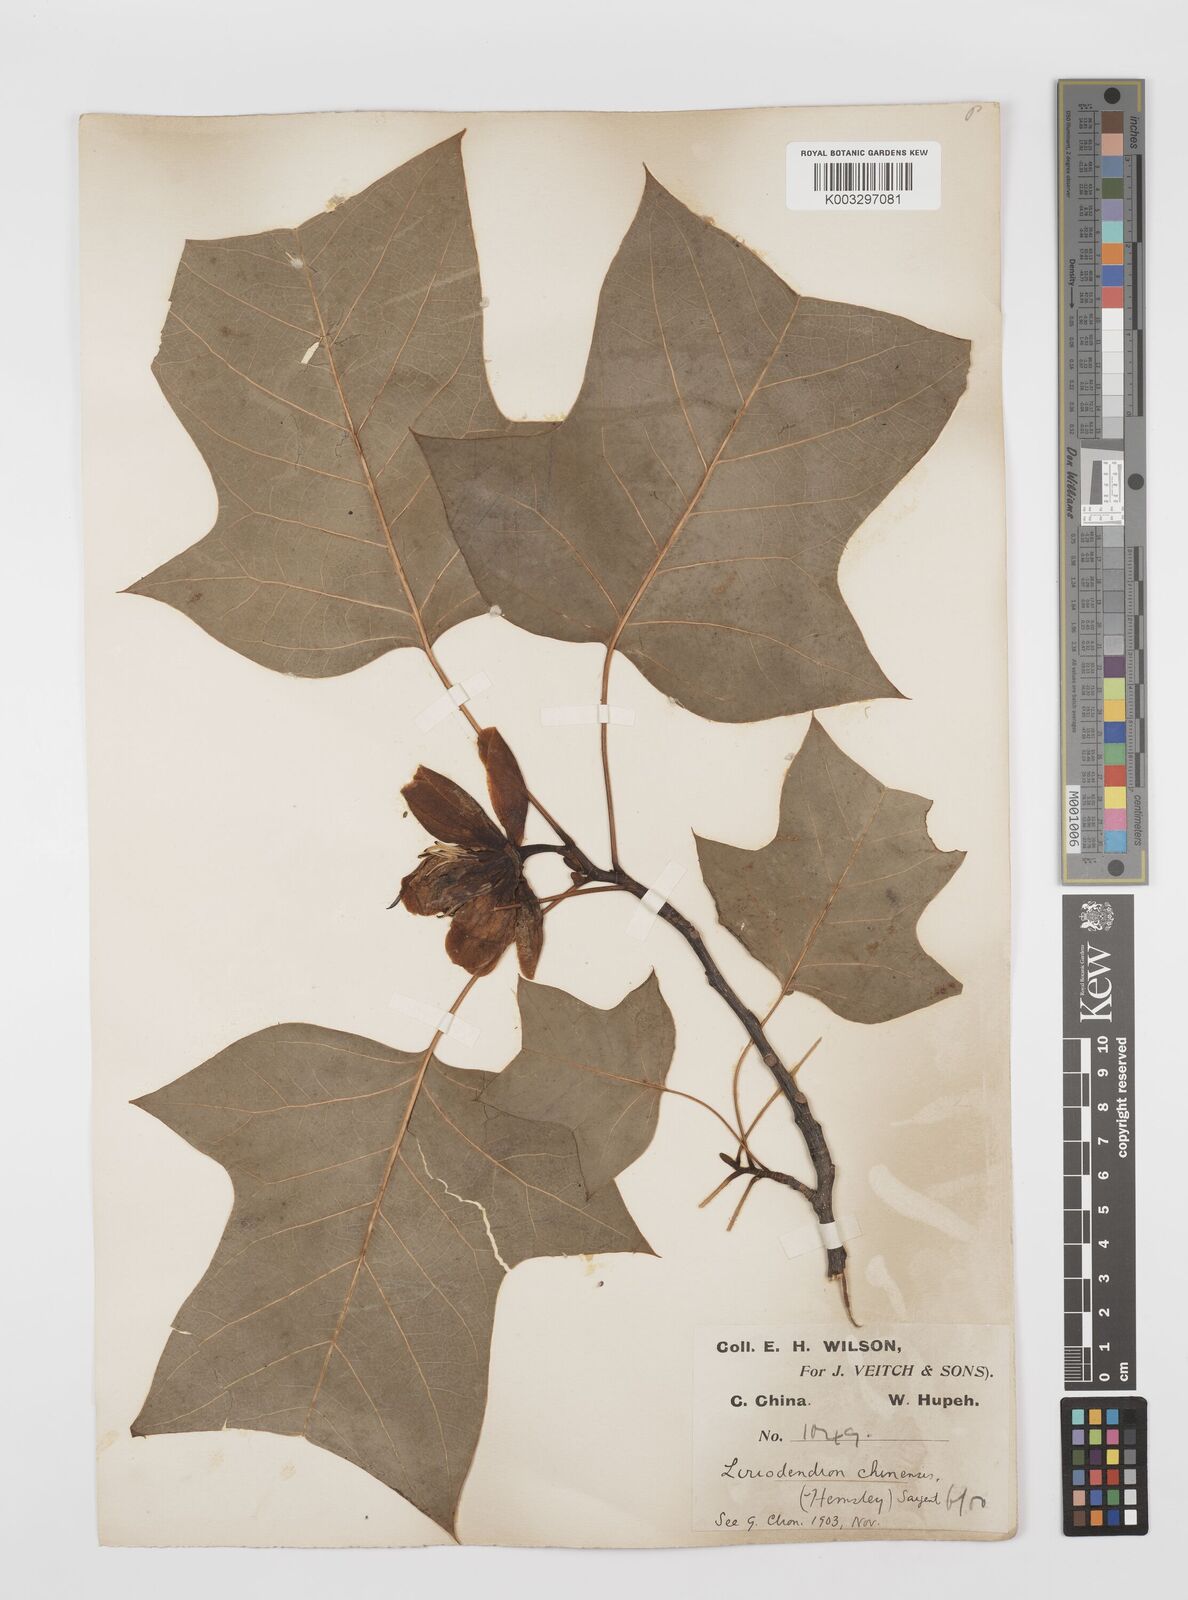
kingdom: Plantae
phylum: Tracheophyta
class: Magnoliopsida
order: Magnoliales
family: Magnoliaceae
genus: Liriodendron
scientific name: Liriodendron chinense
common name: Chinese tuliptree
